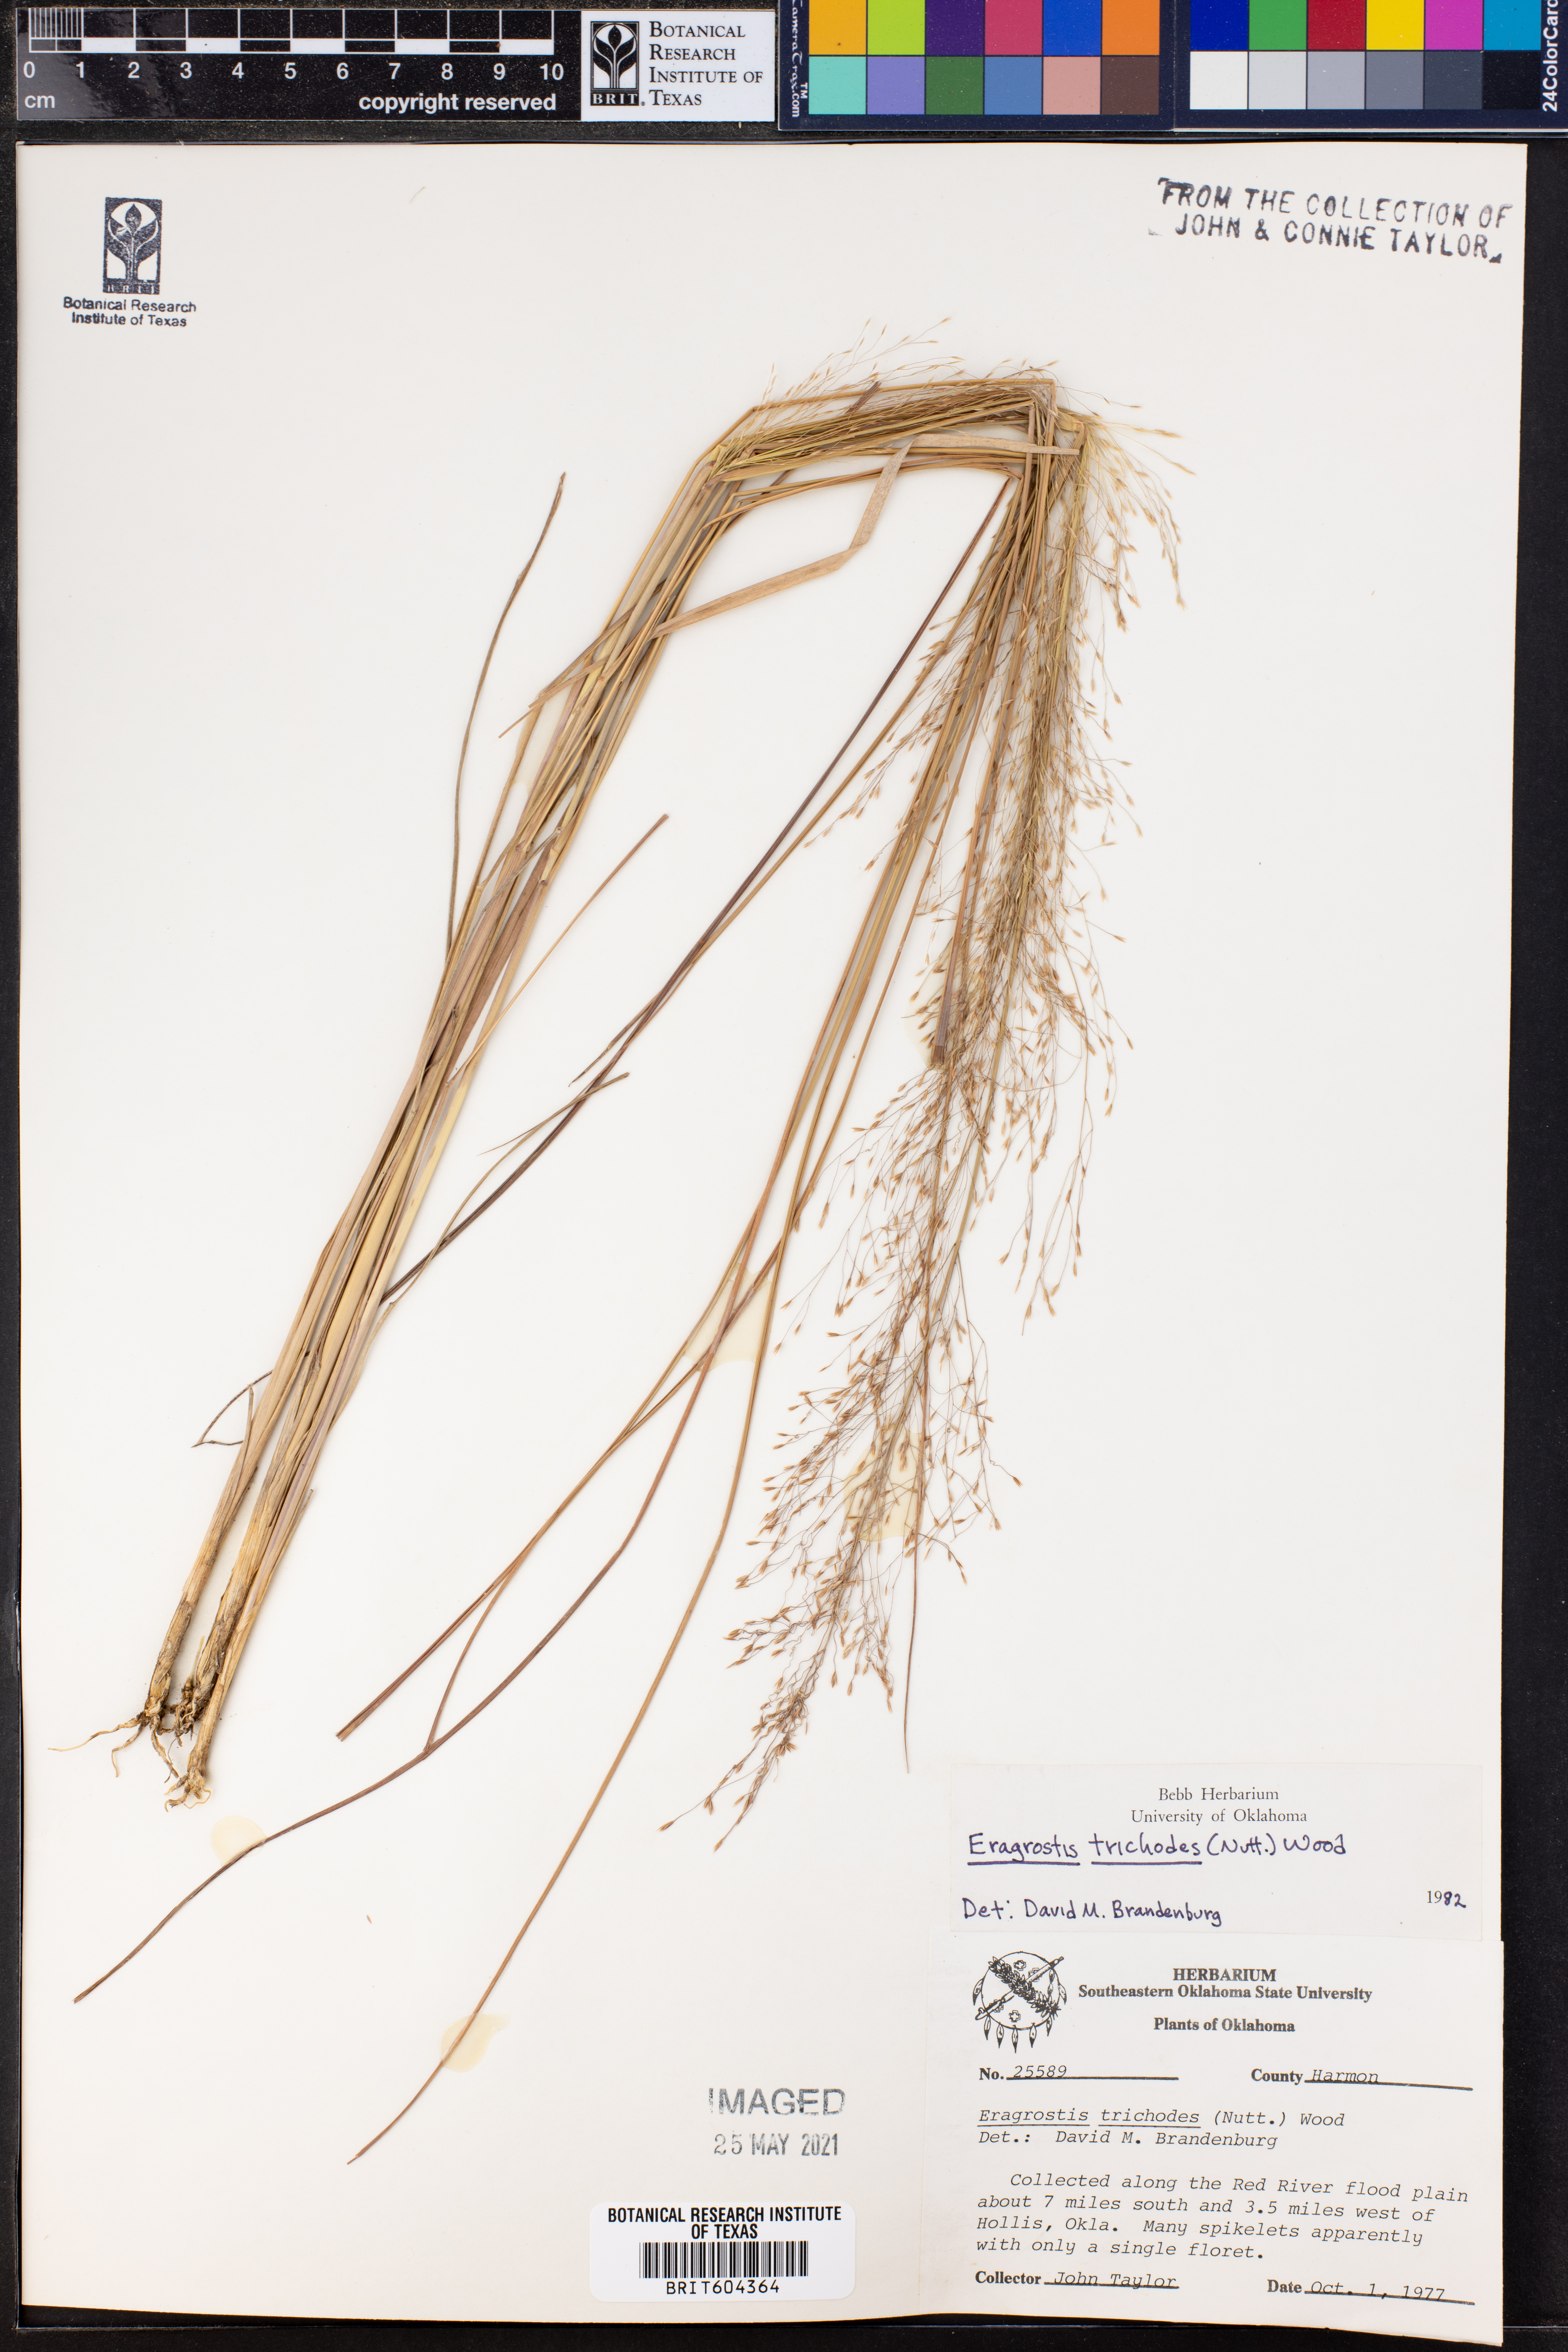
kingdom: Plantae
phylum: Tracheophyta
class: Liliopsida
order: Poales
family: Poaceae
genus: Eragrostis
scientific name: Eragrostis trichodes
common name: Sand love grass
